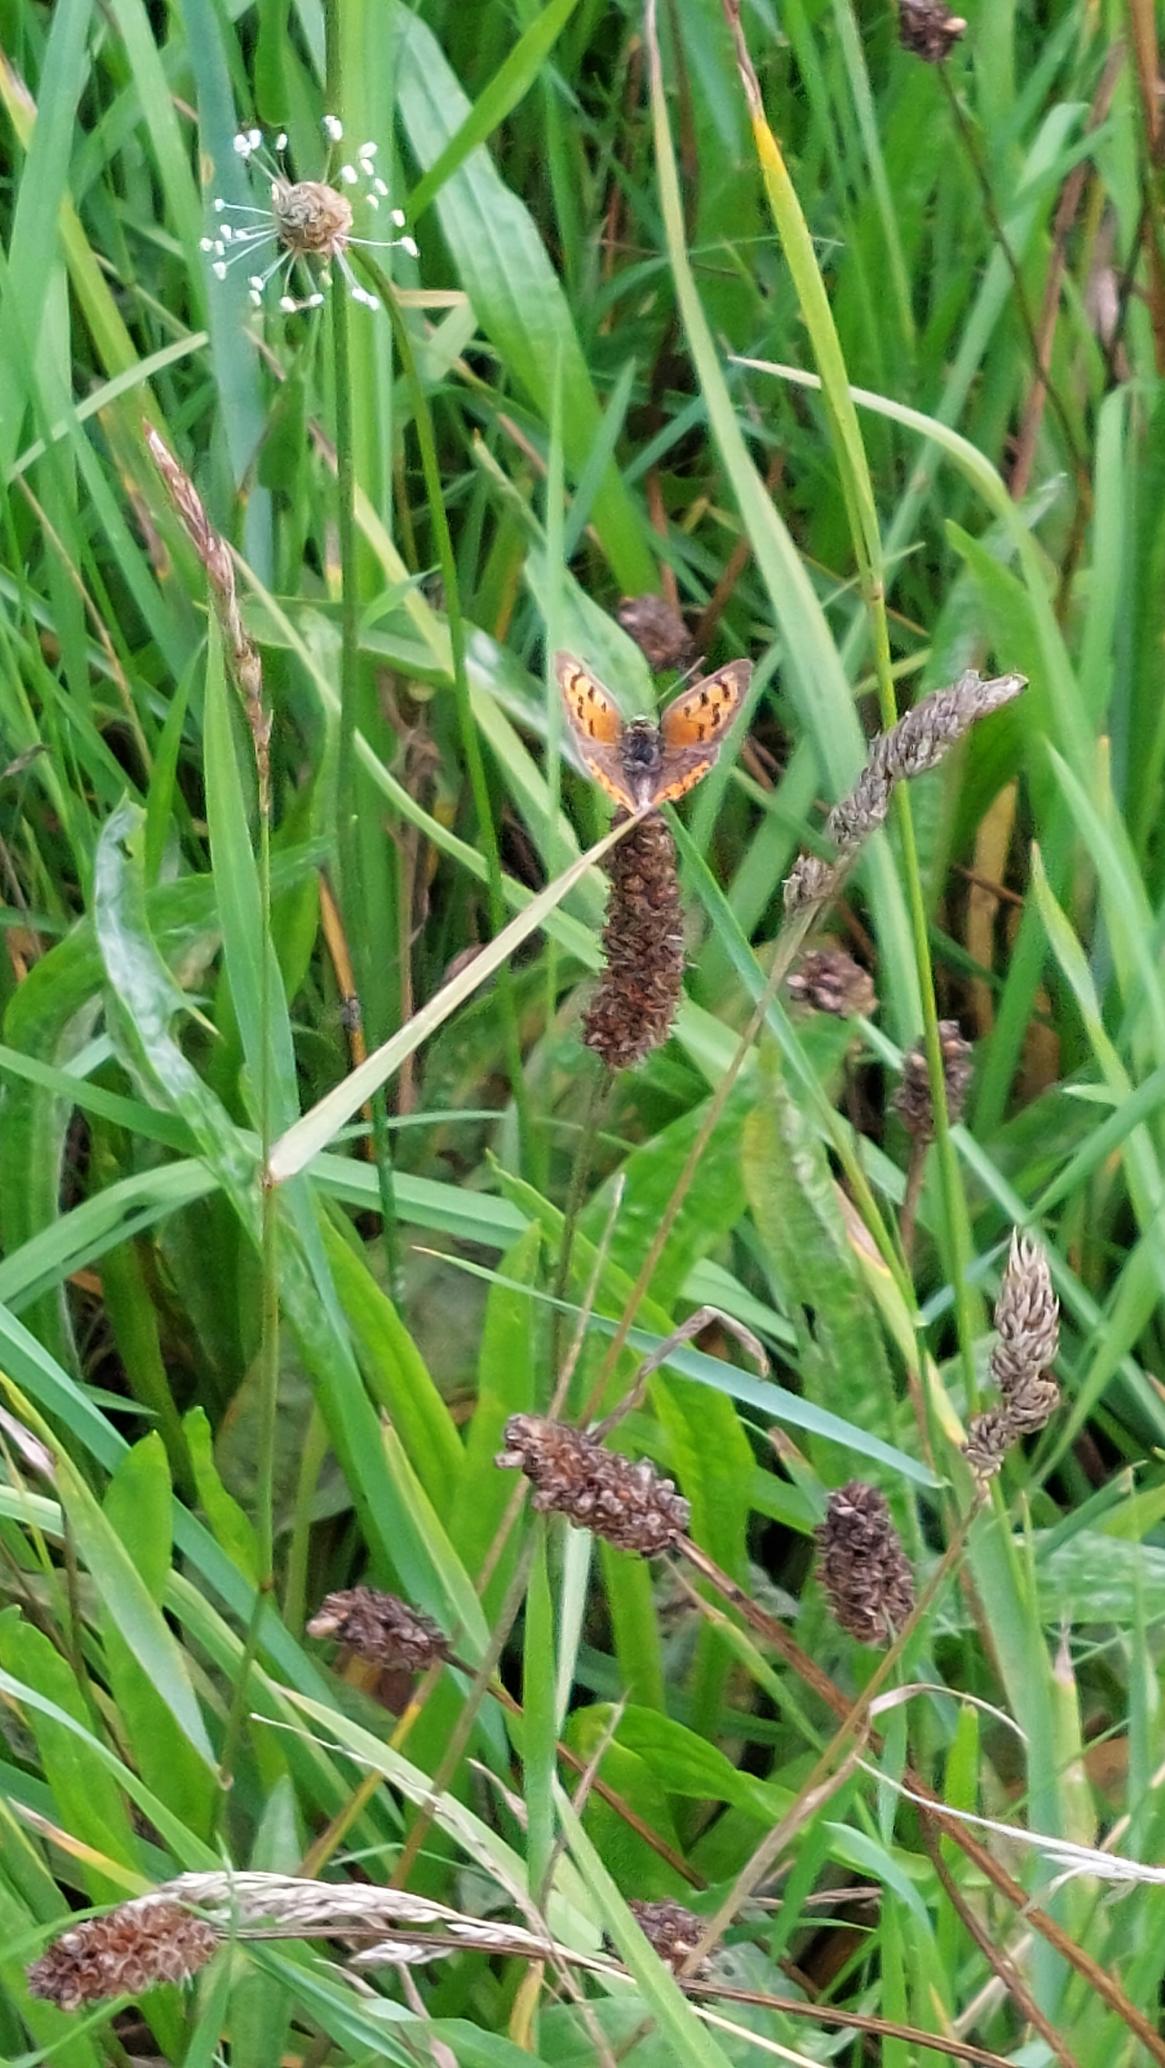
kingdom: Animalia
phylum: Arthropoda
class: Insecta
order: Lepidoptera
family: Lycaenidae
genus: Lycaena
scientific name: Lycaena phlaeas
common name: Lille ildfugl
